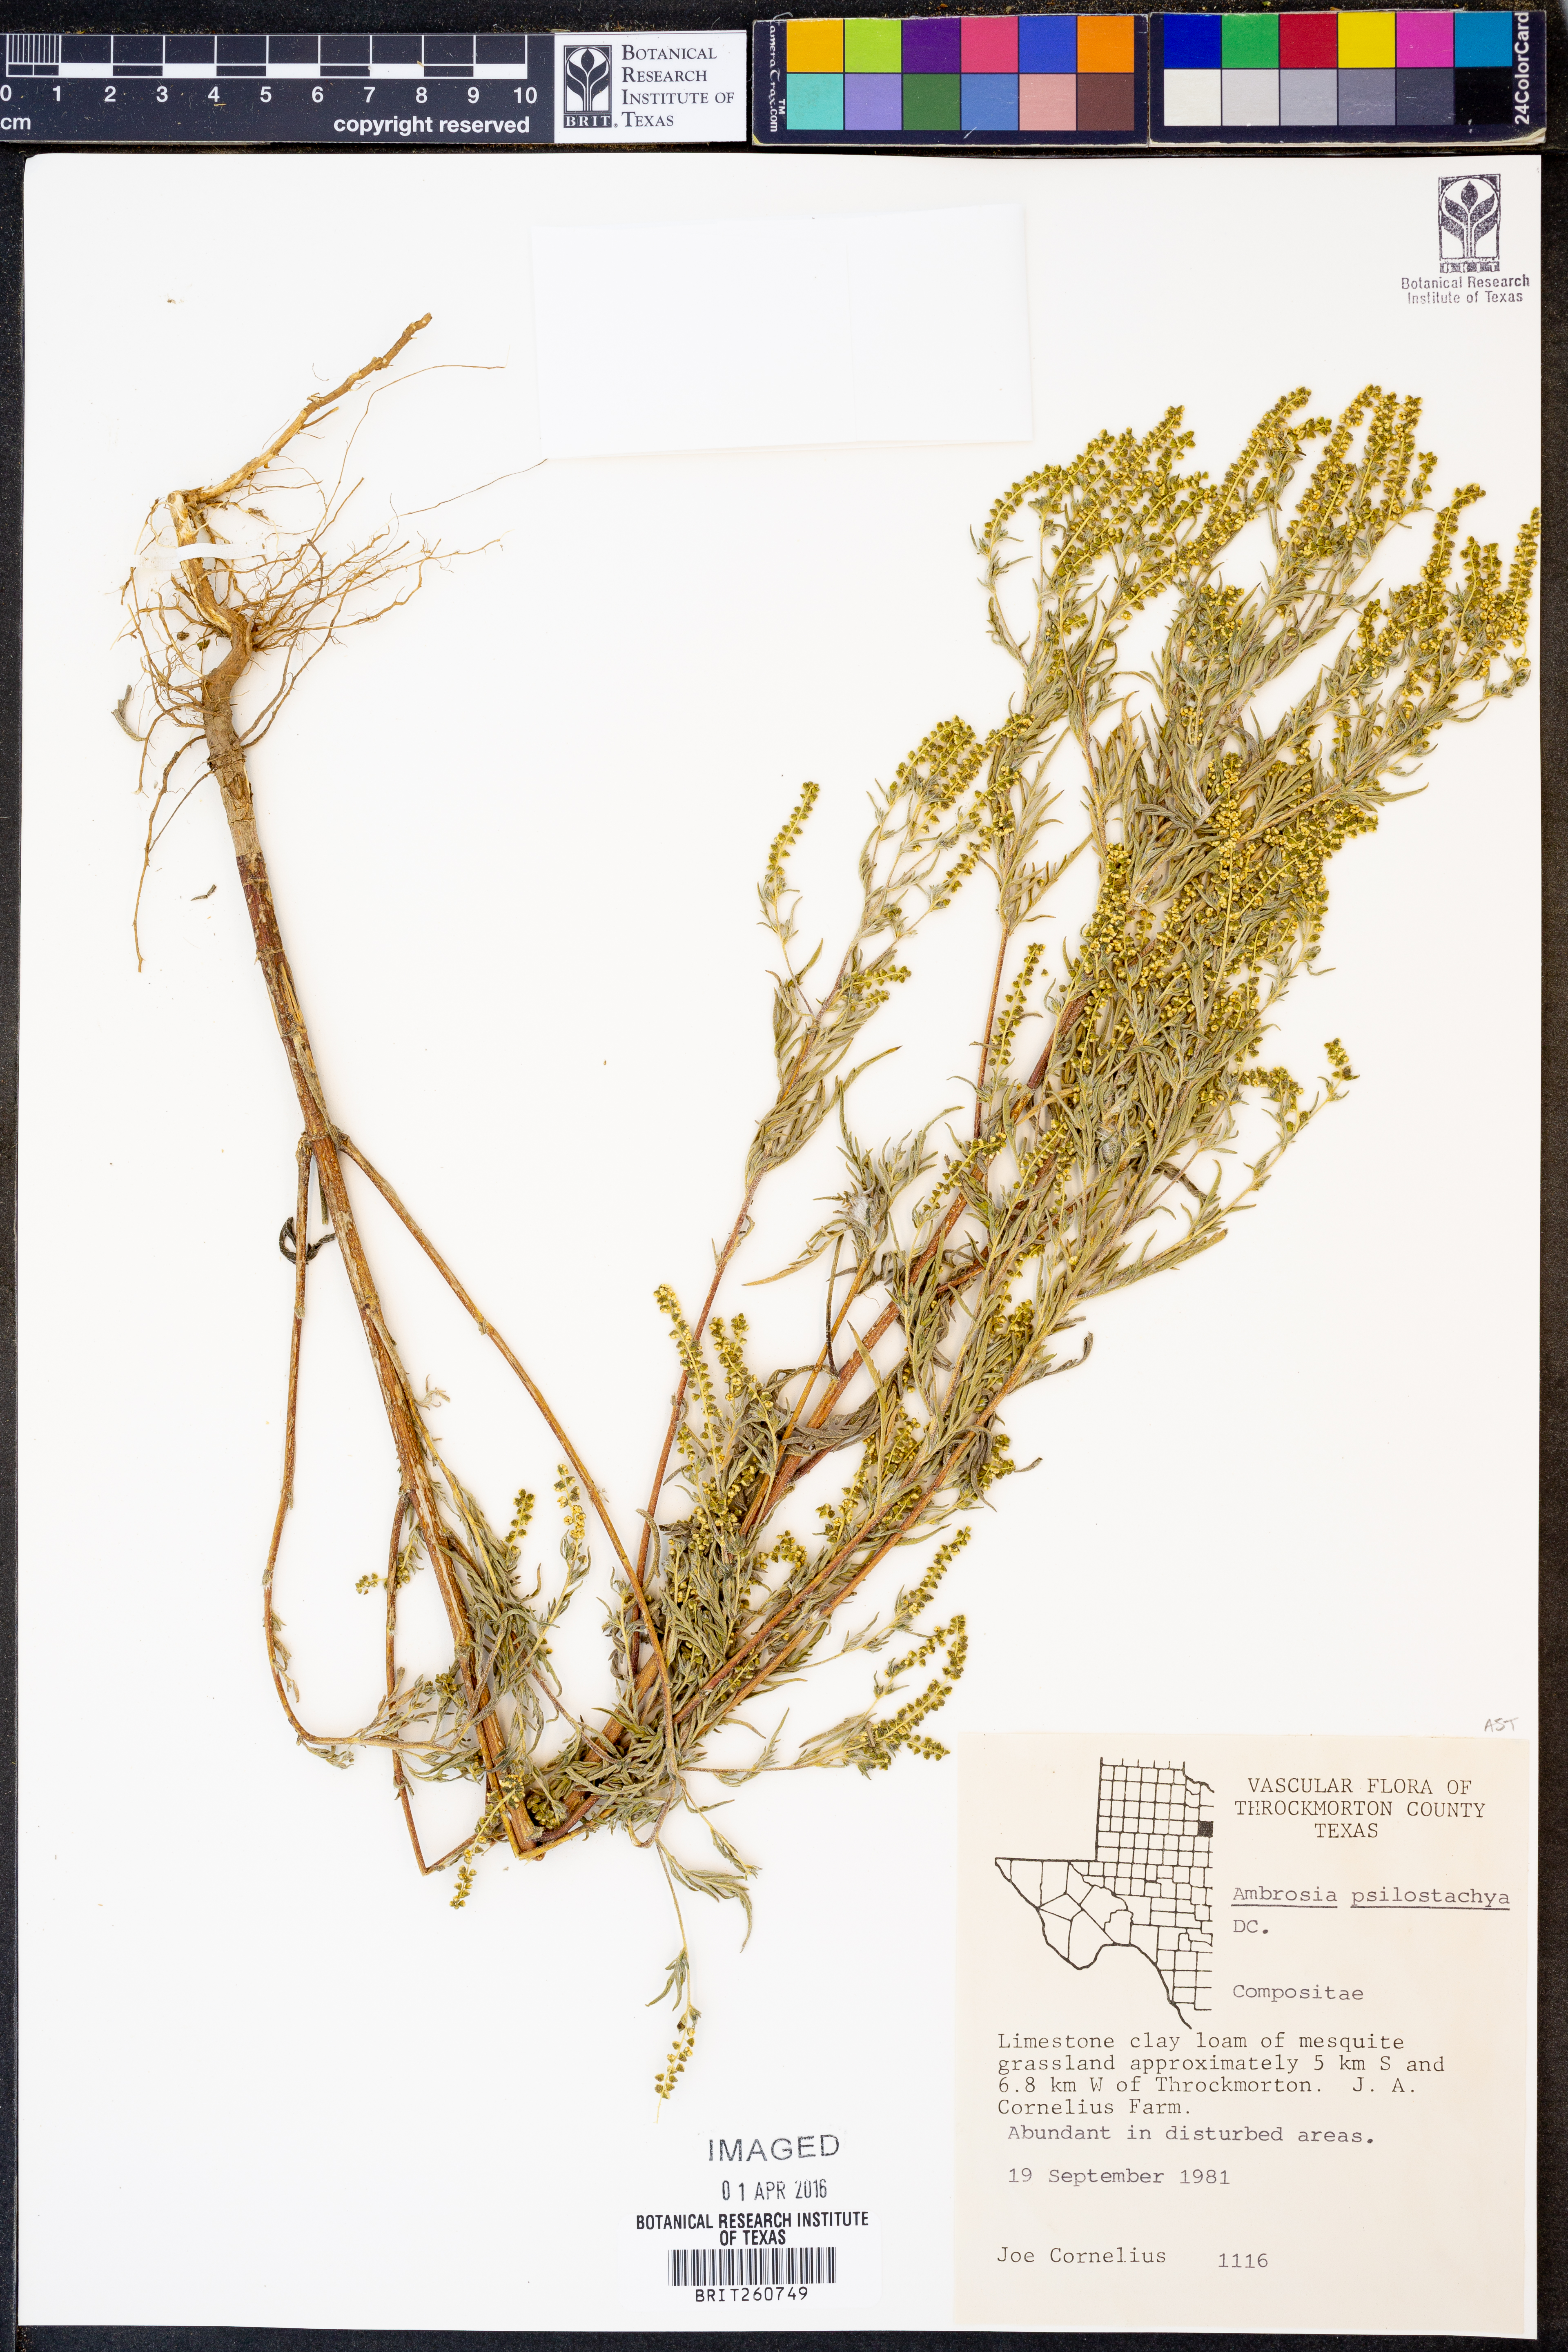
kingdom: Plantae
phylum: Tracheophyta
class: Magnoliopsida
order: Asterales
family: Asteraceae
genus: Ambrosia
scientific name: Ambrosia psilostachya
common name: Perennial ragweed
